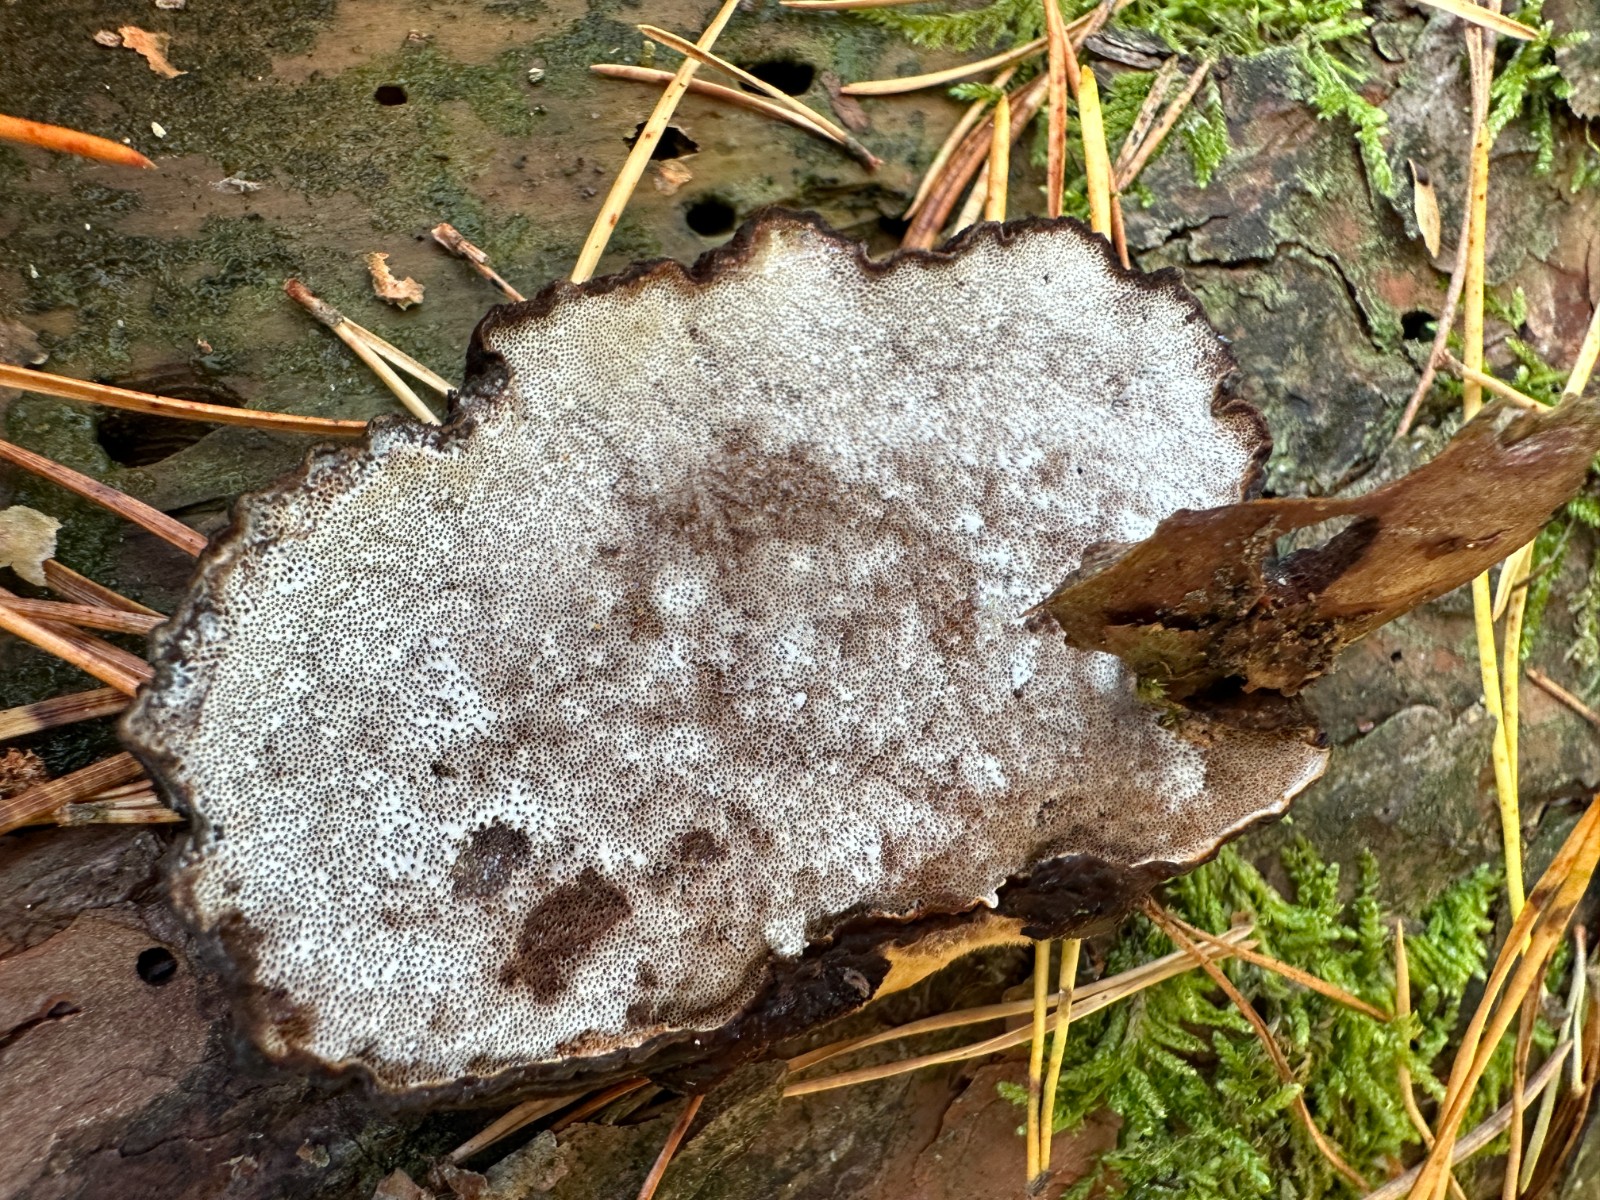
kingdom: Fungi
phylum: Basidiomycota
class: Agaricomycetes
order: Polyporales
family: Ischnodermataceae
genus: Ischnoderma
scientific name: Ischnoderma benzoinum
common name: gran-tjæreporesvamp
